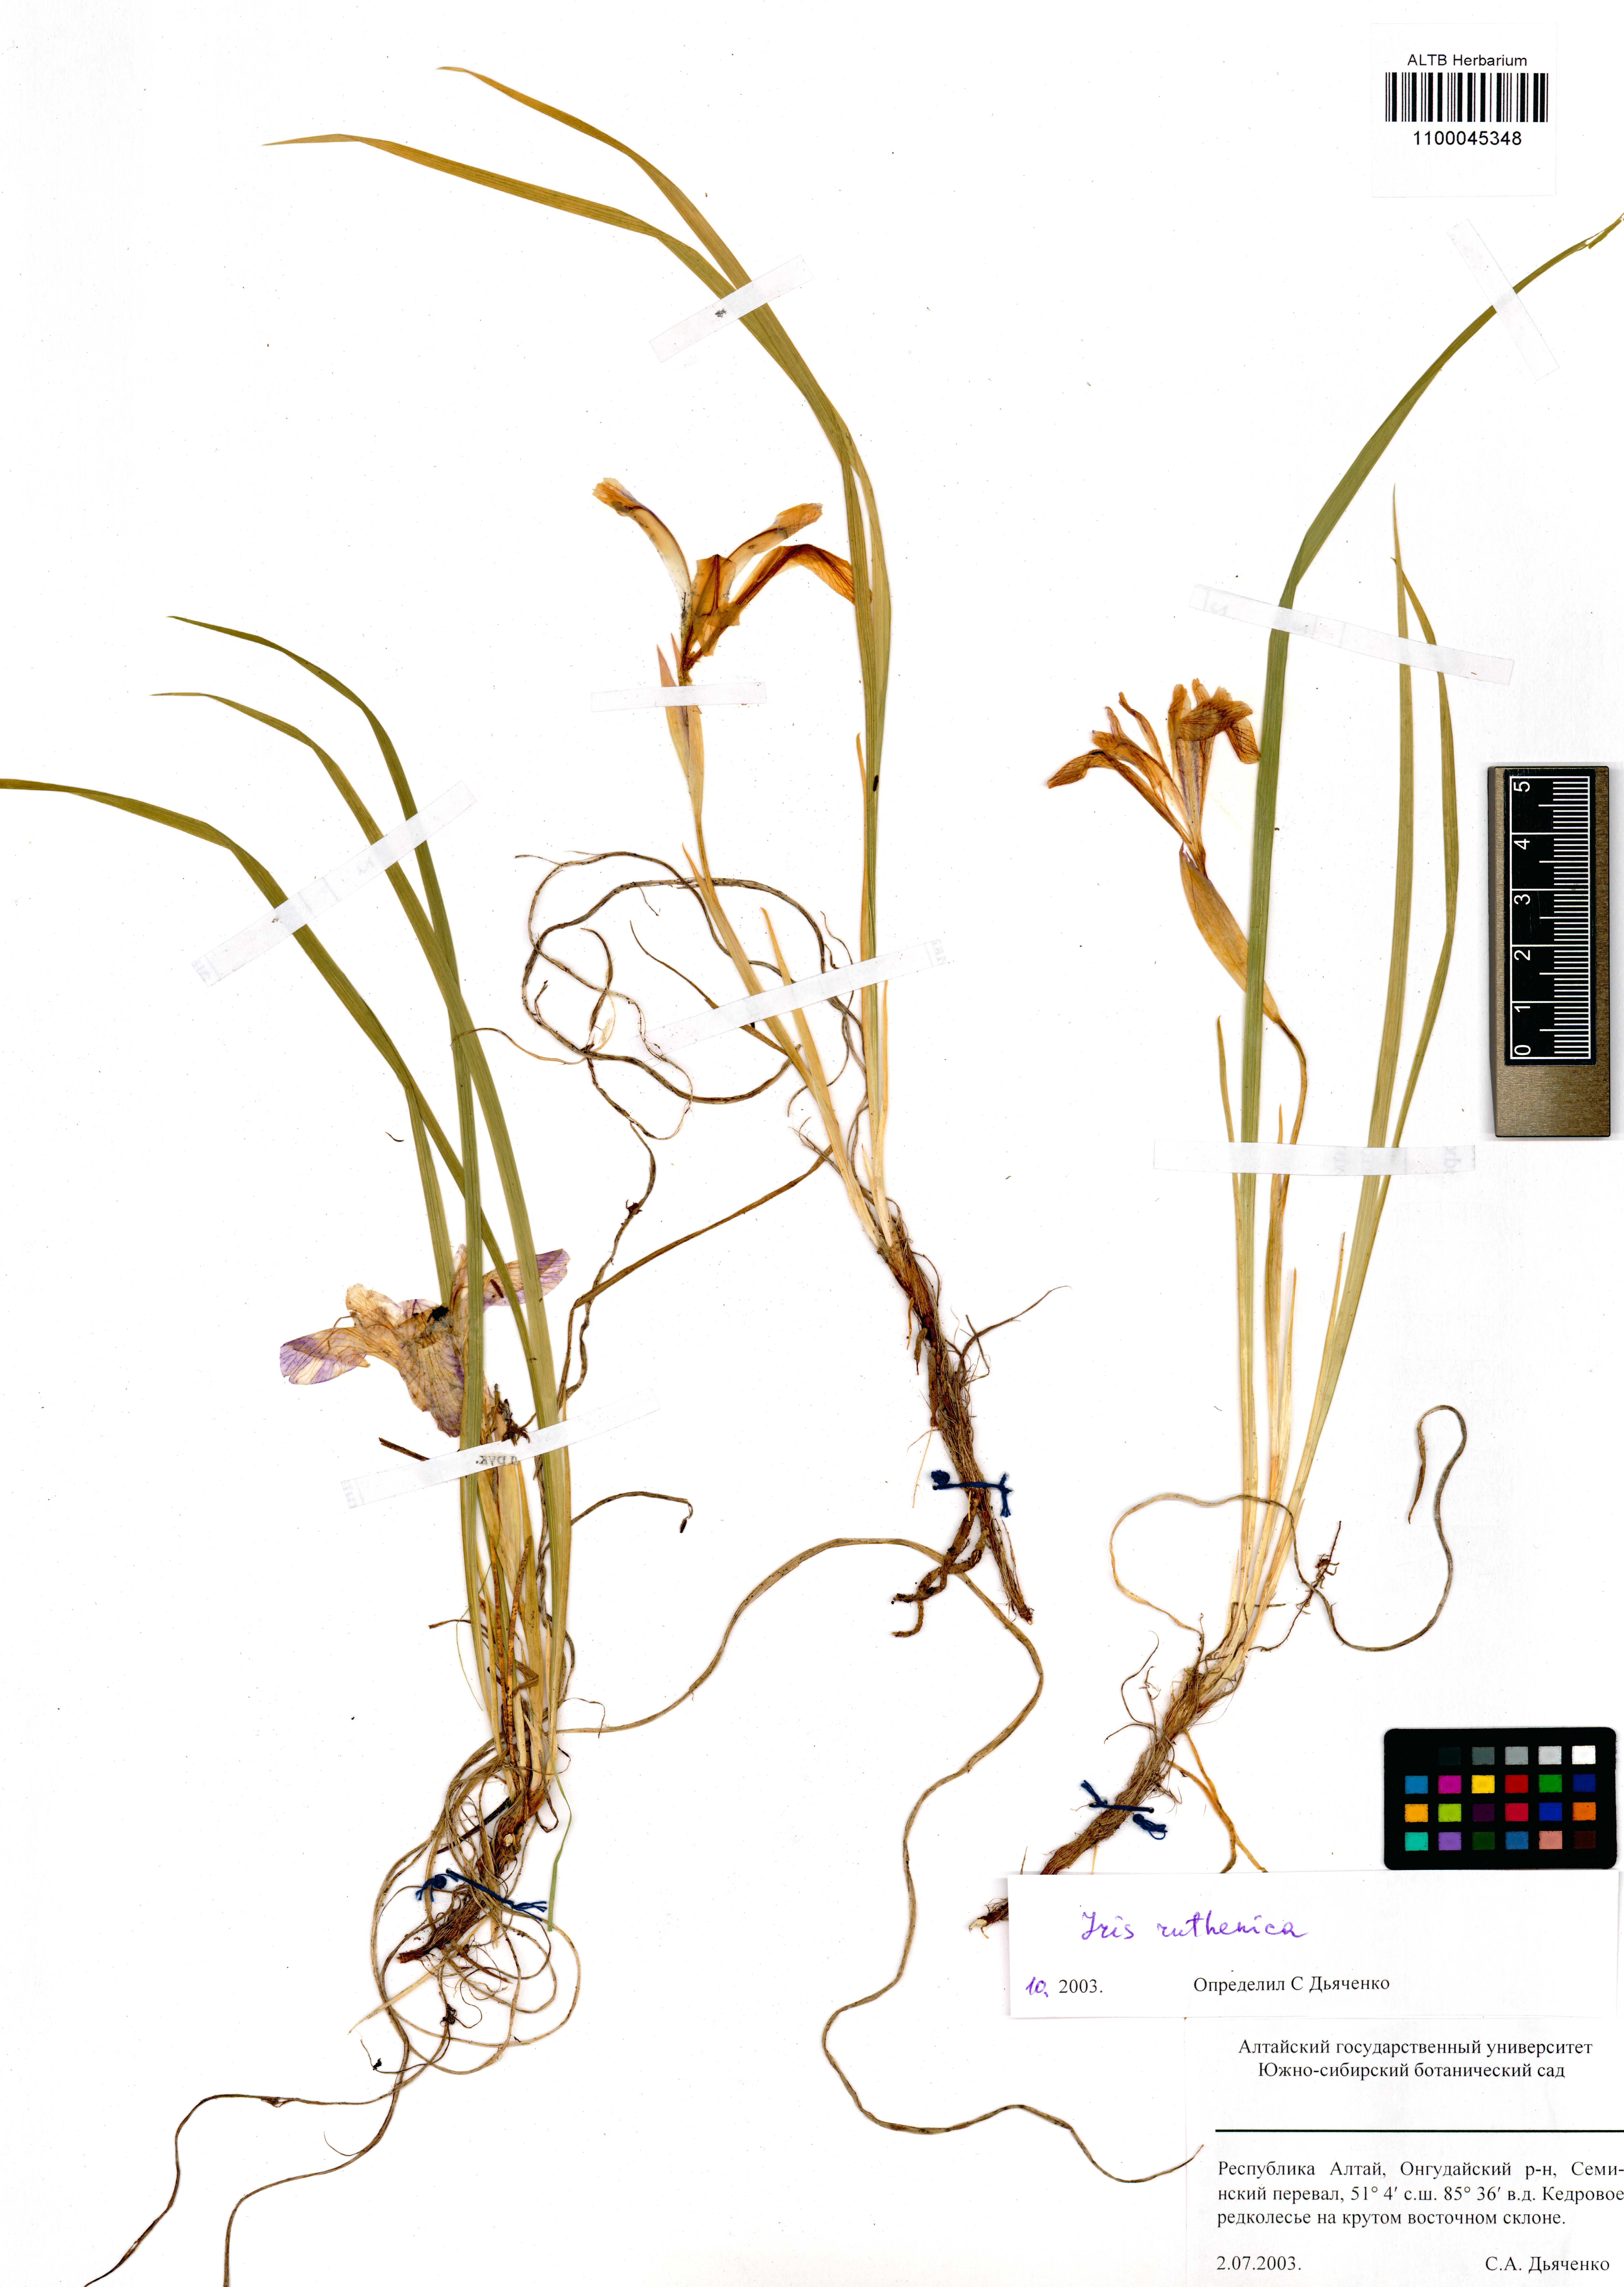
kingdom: Plantae
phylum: Tracheophyta
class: Liliopsida
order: Asparagales
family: Iridaceae
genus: Iris
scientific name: Iris ruthenica
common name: Purple-bract iris
